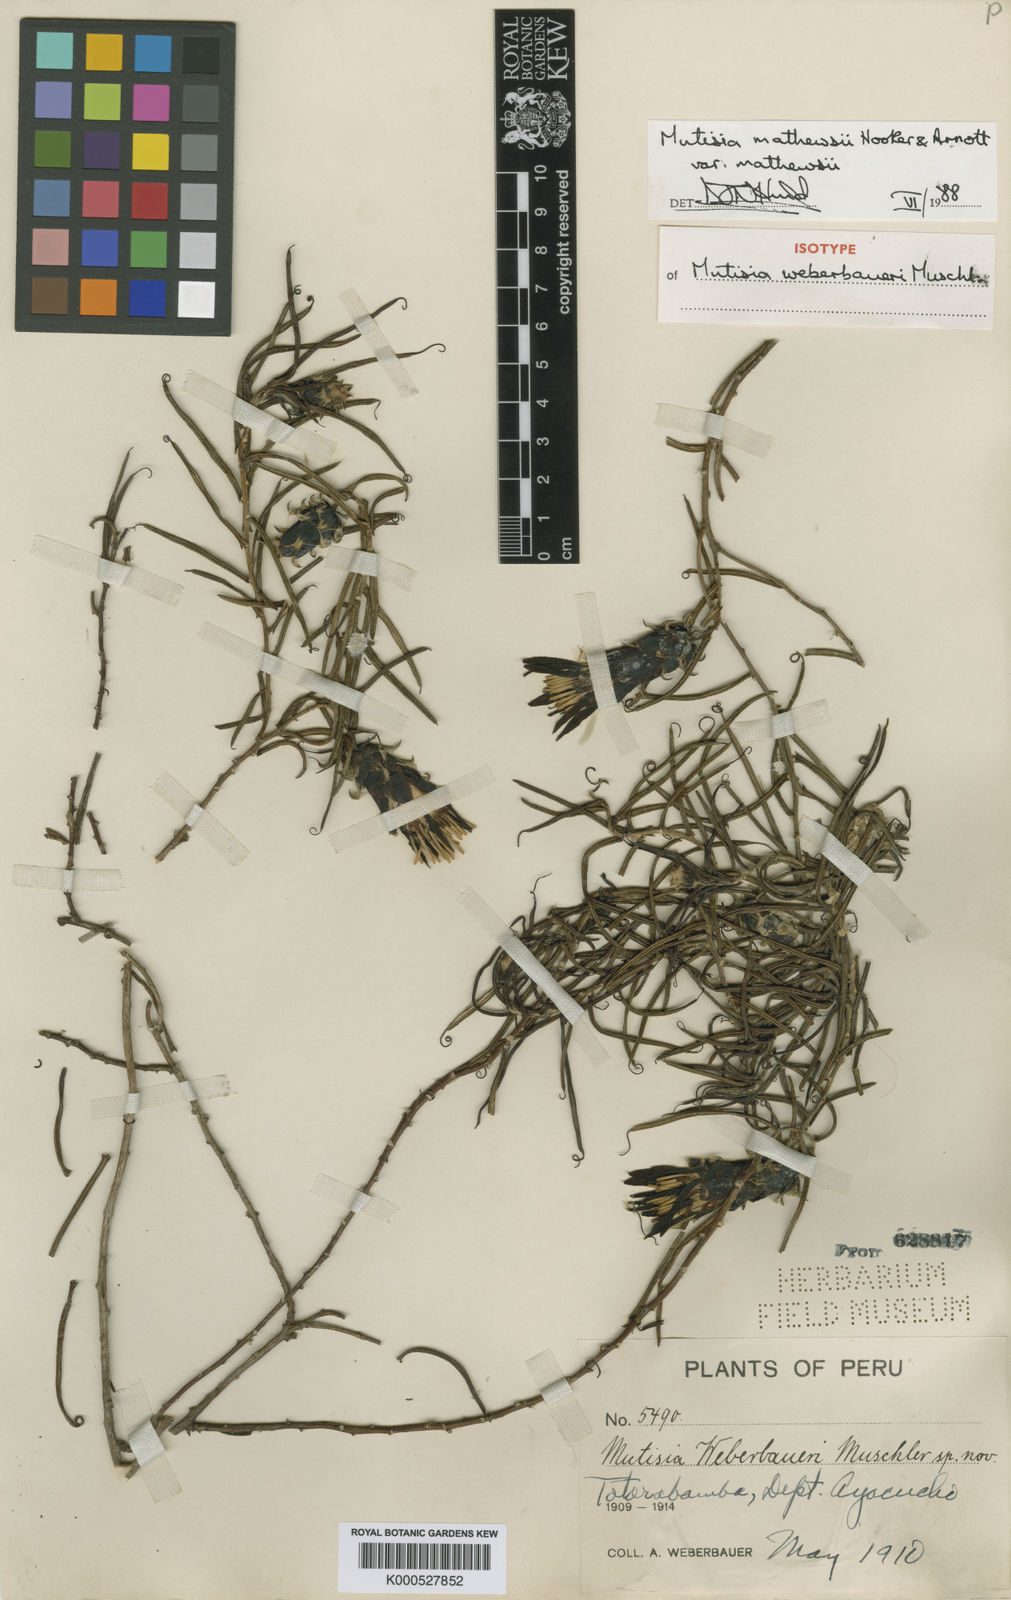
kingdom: Plantae
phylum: Tracheophyta
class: Magnoliopsida
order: Asterales
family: Asteraceae
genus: Mutisia
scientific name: Mutisia mathewsii
